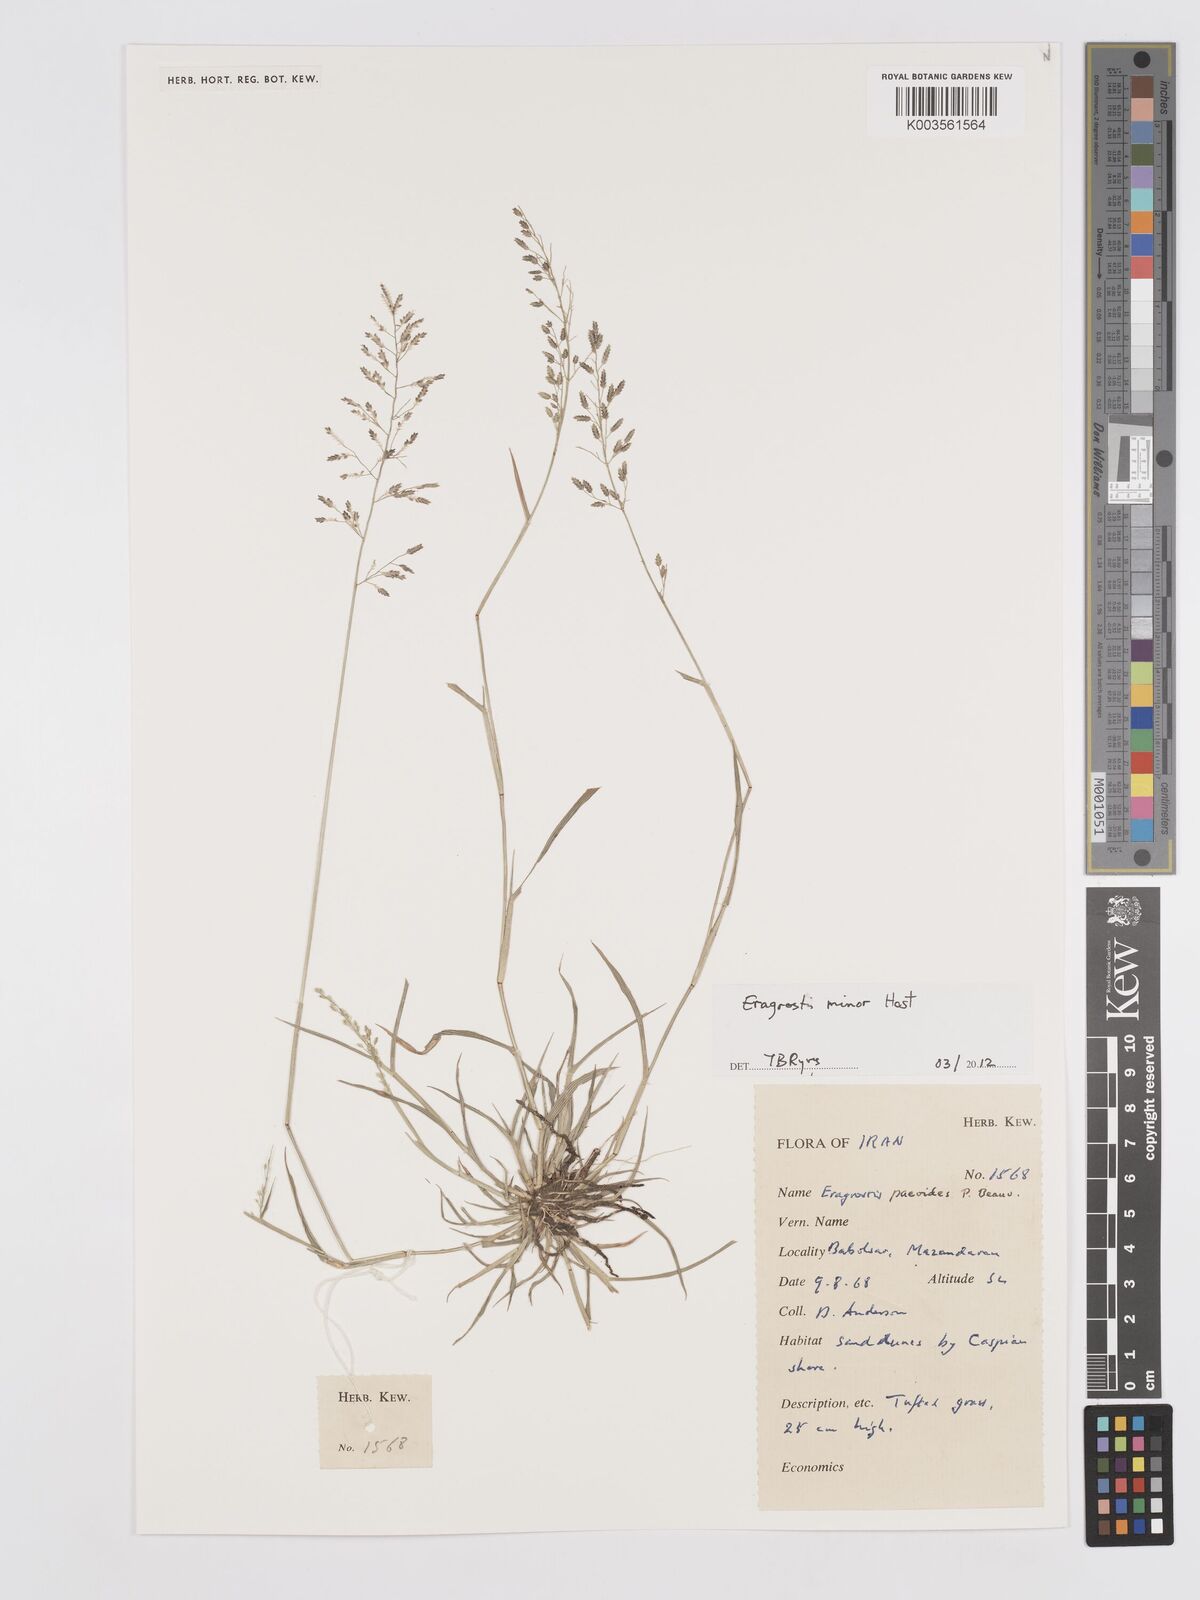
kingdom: Plantae
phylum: Tracheophyta
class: Liliopsida
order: Poales
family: Poaceae
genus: Eragrostis
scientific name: Eragrostis minor
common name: Small love-grass
